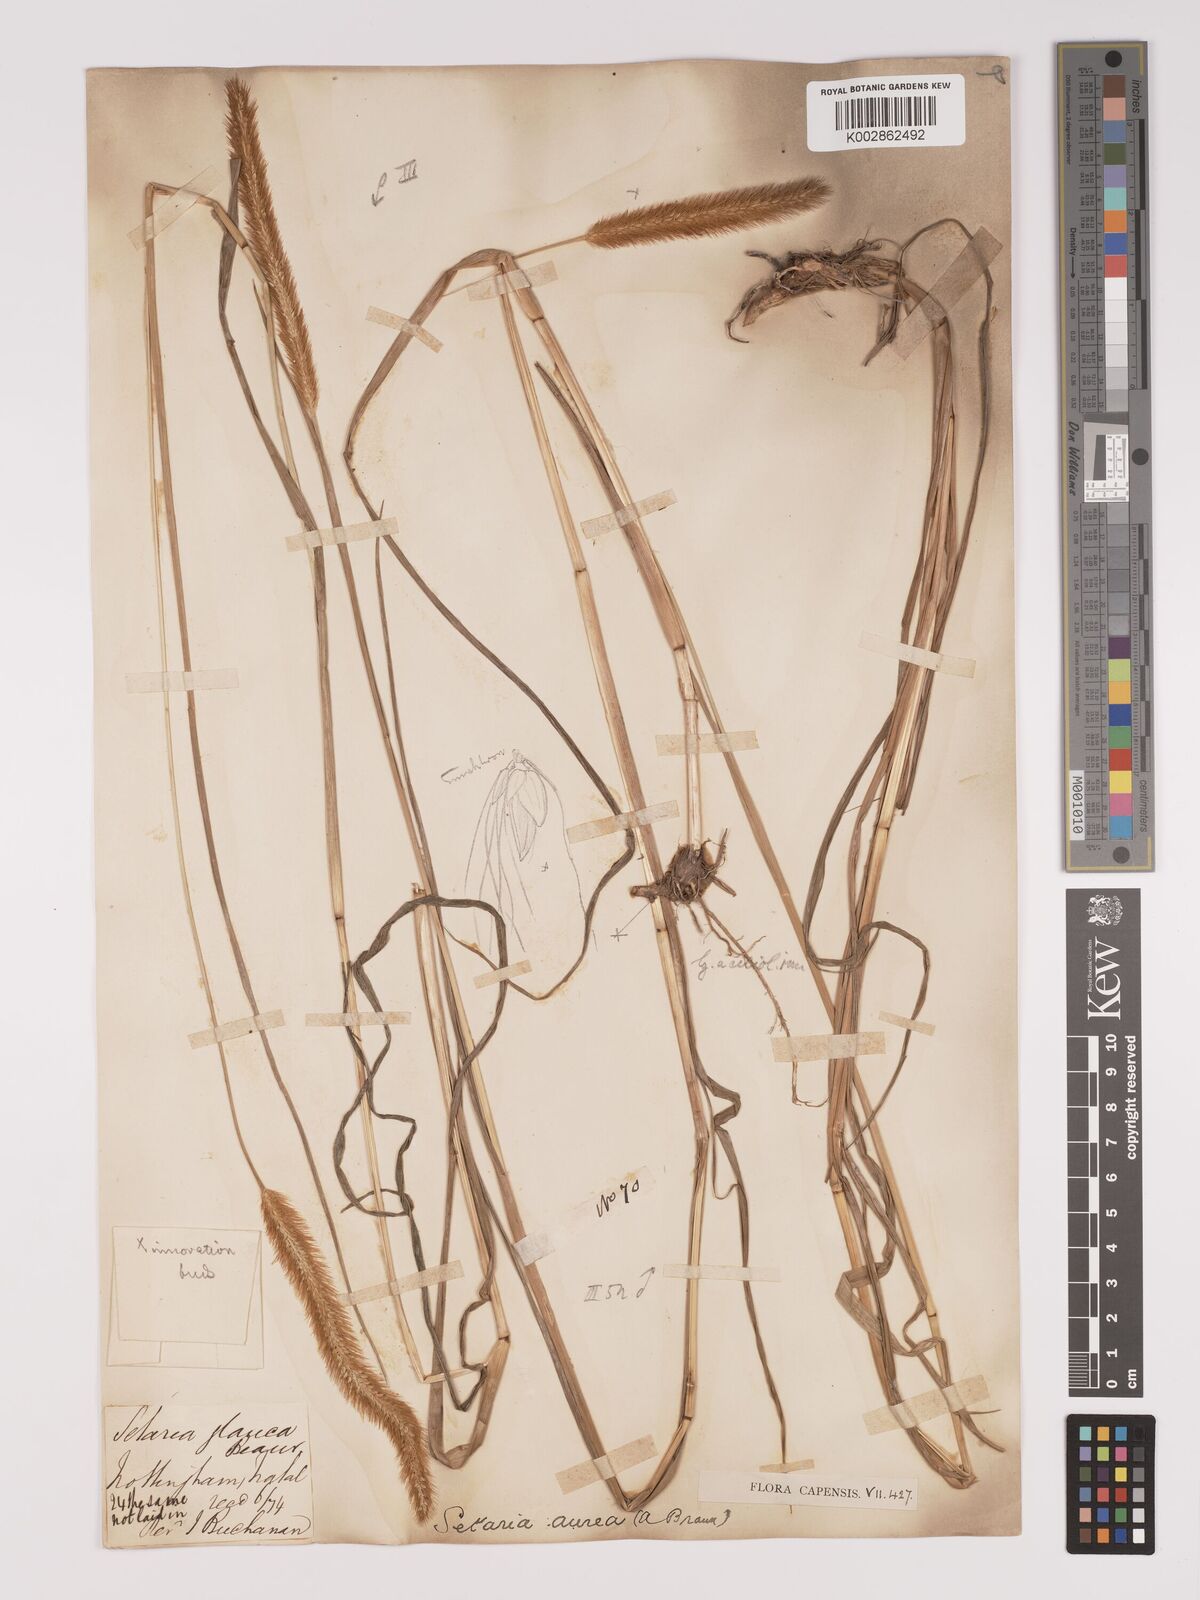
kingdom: Plantae
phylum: Tracheophyta
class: Liliopsida
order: Poales
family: Poaceae
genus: Setaria
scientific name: Setaria sphacelata
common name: African bristlegrass
